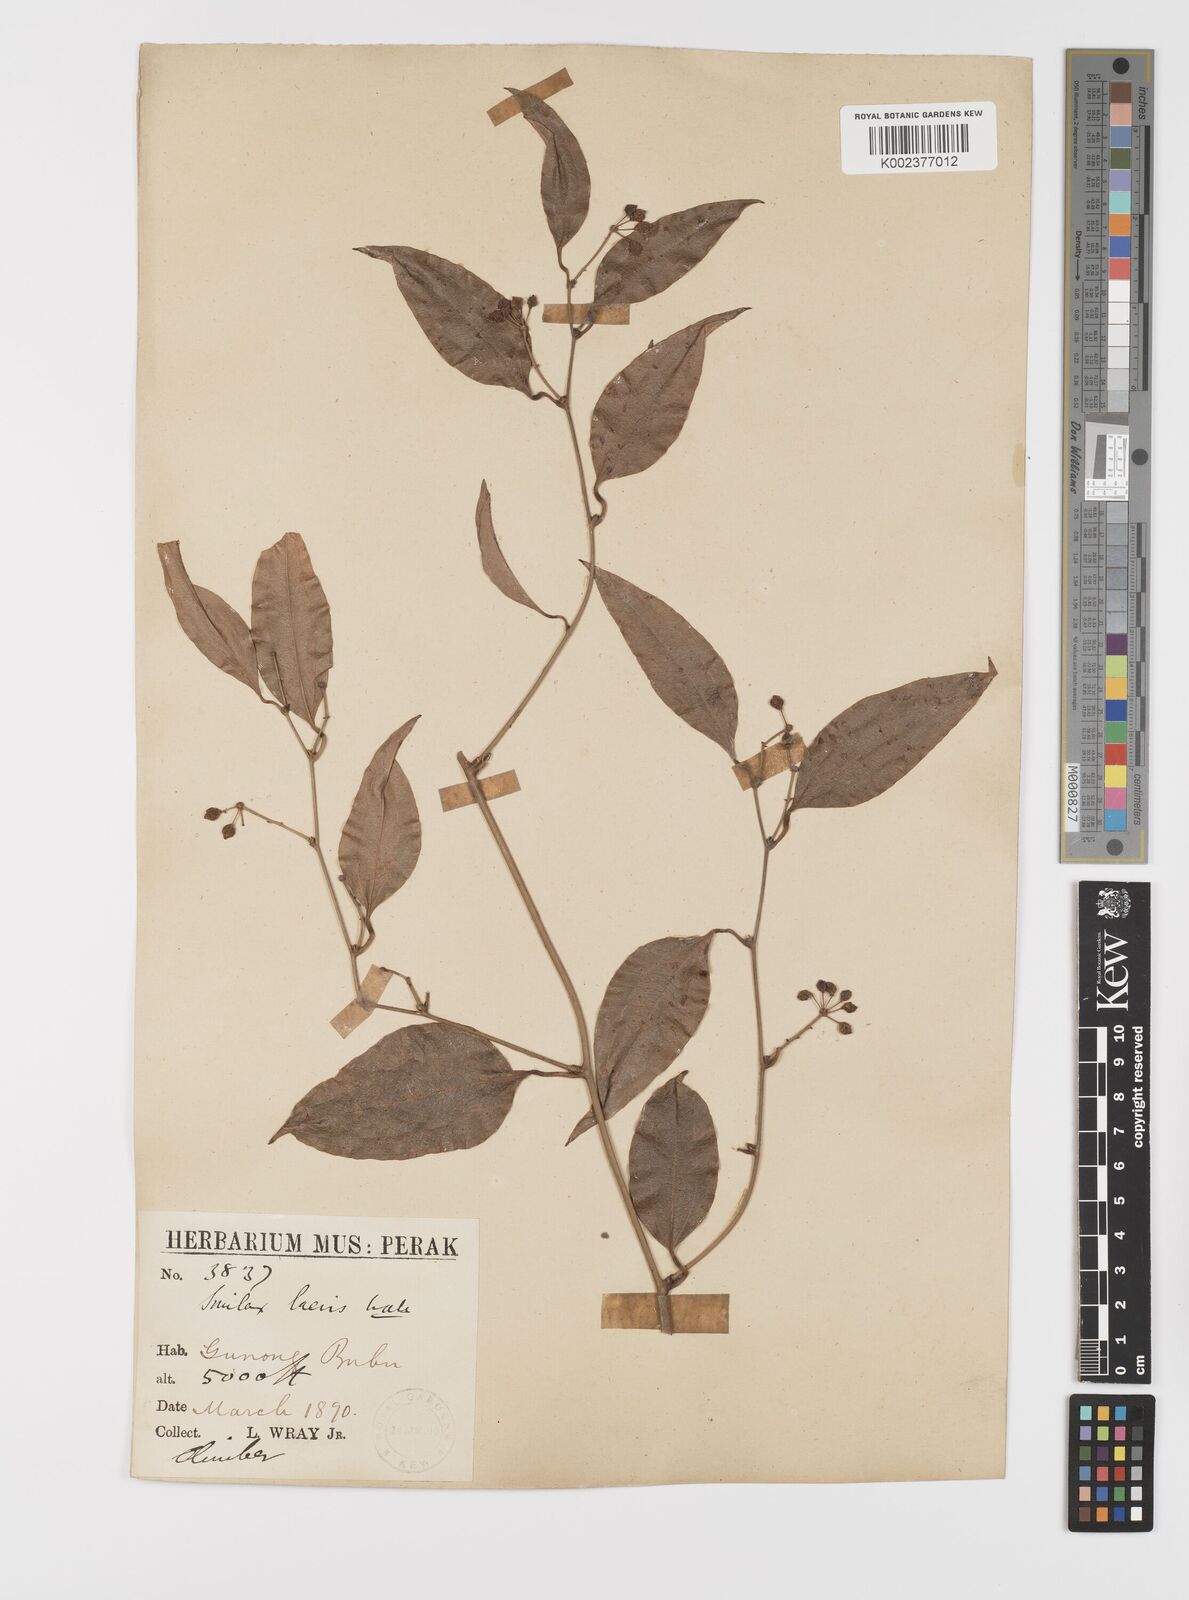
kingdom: Plantae
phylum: Tracheophyta
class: Liliopsida
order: Liliales
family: Smilacaceae
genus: Smilax
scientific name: Smilax laevis
